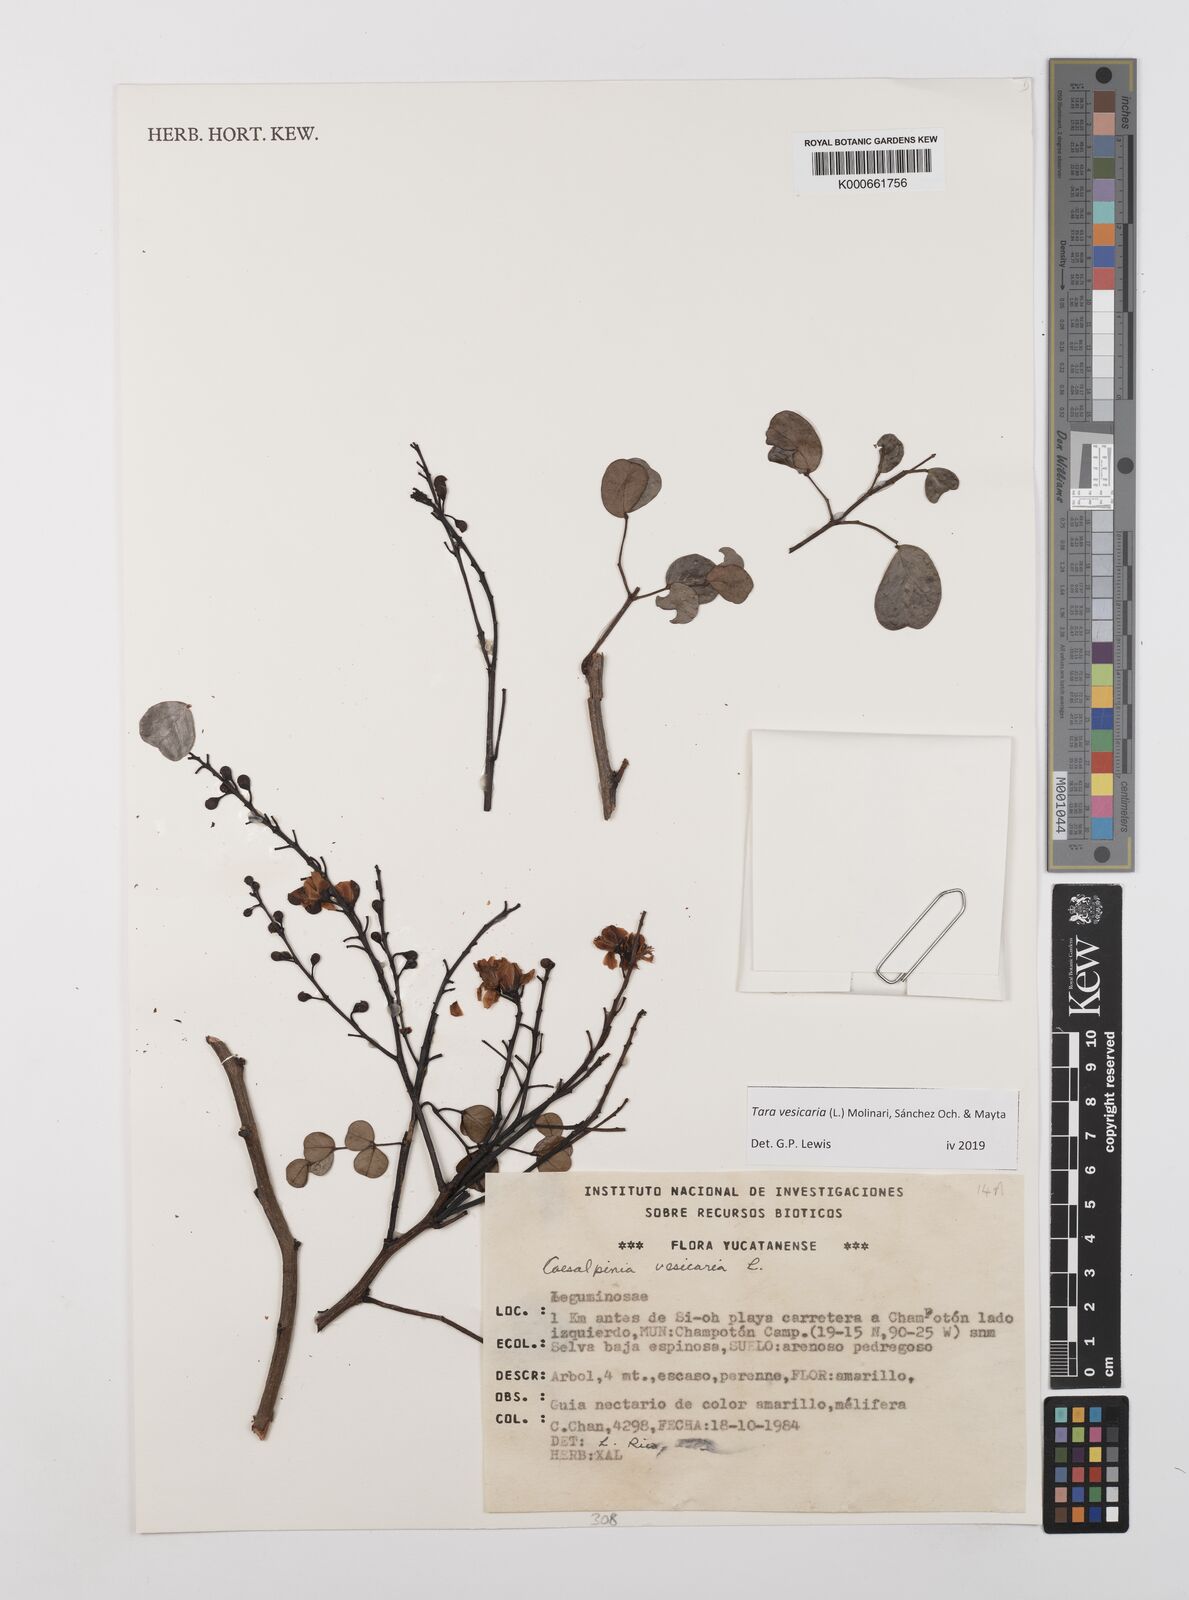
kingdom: Plantae
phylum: Tracheophyta
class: Magnoliopsida
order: Fabales
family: Fabaceae
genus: Tara
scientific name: Tara vesicaria
